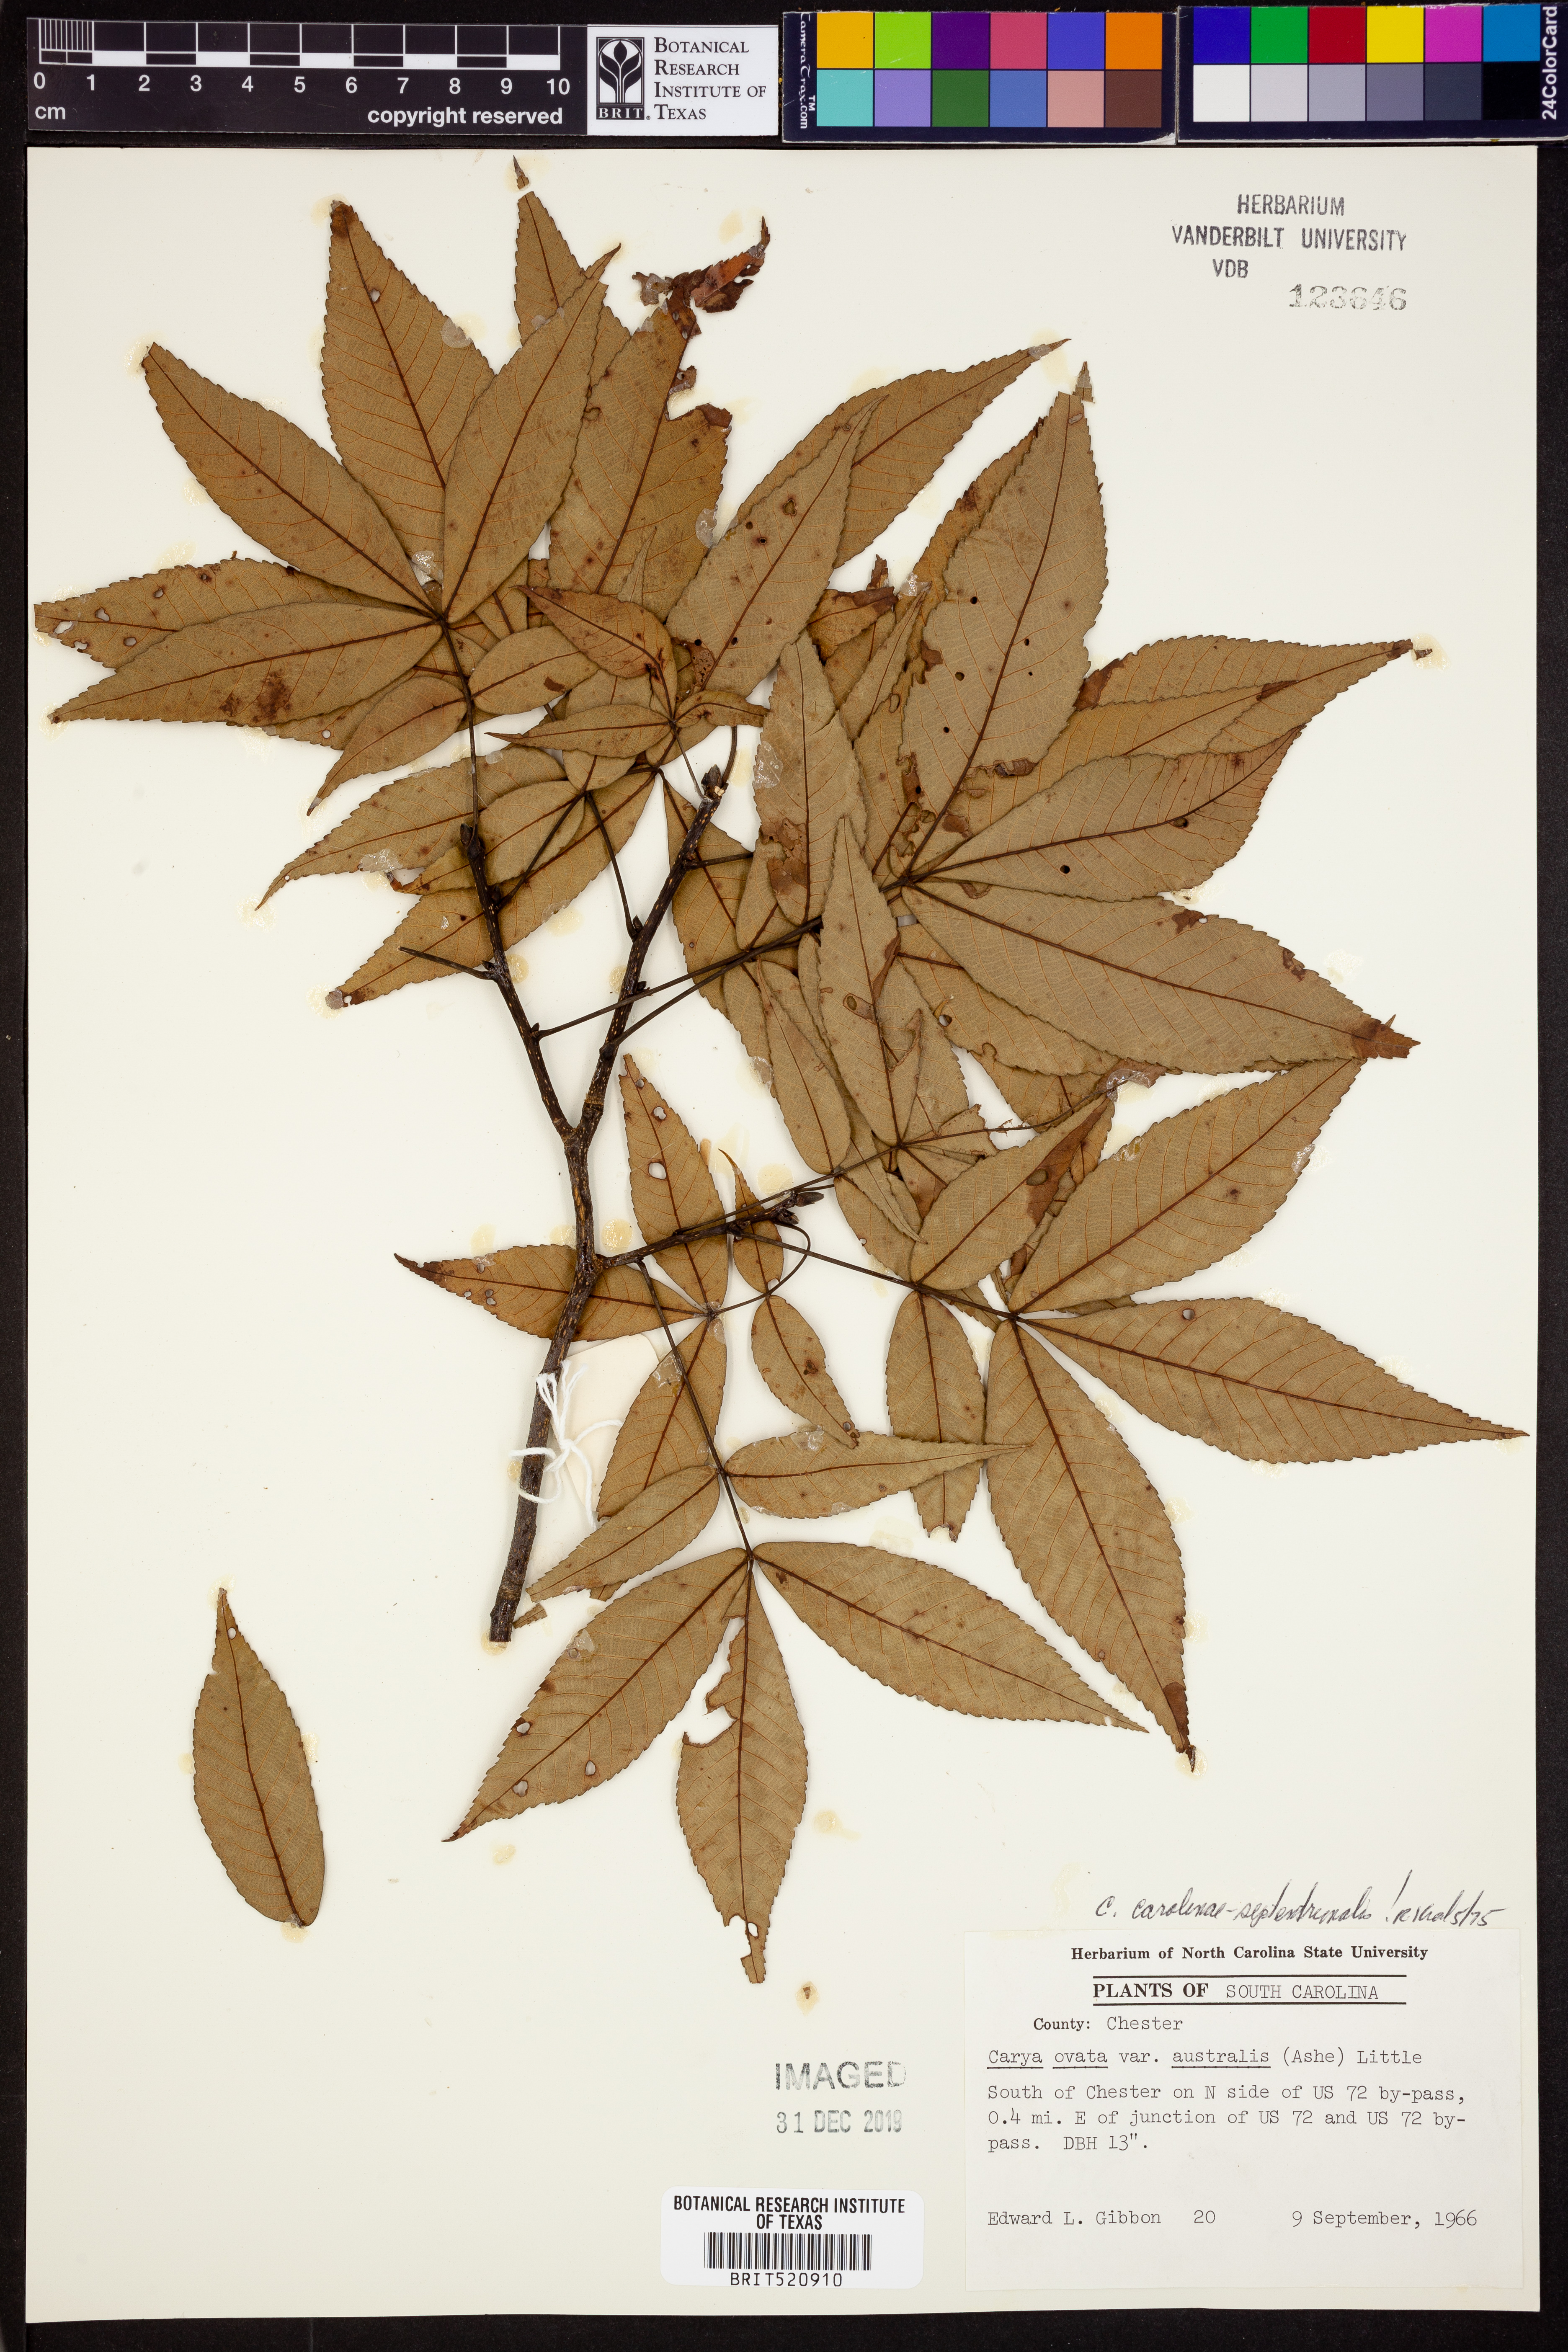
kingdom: Plantae
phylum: Tracheophyta
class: Magnoliopsida
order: Fagales
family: Juglandaceae
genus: Carya
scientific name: Carya carolinae-septentrionalis
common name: Carolina hickory
